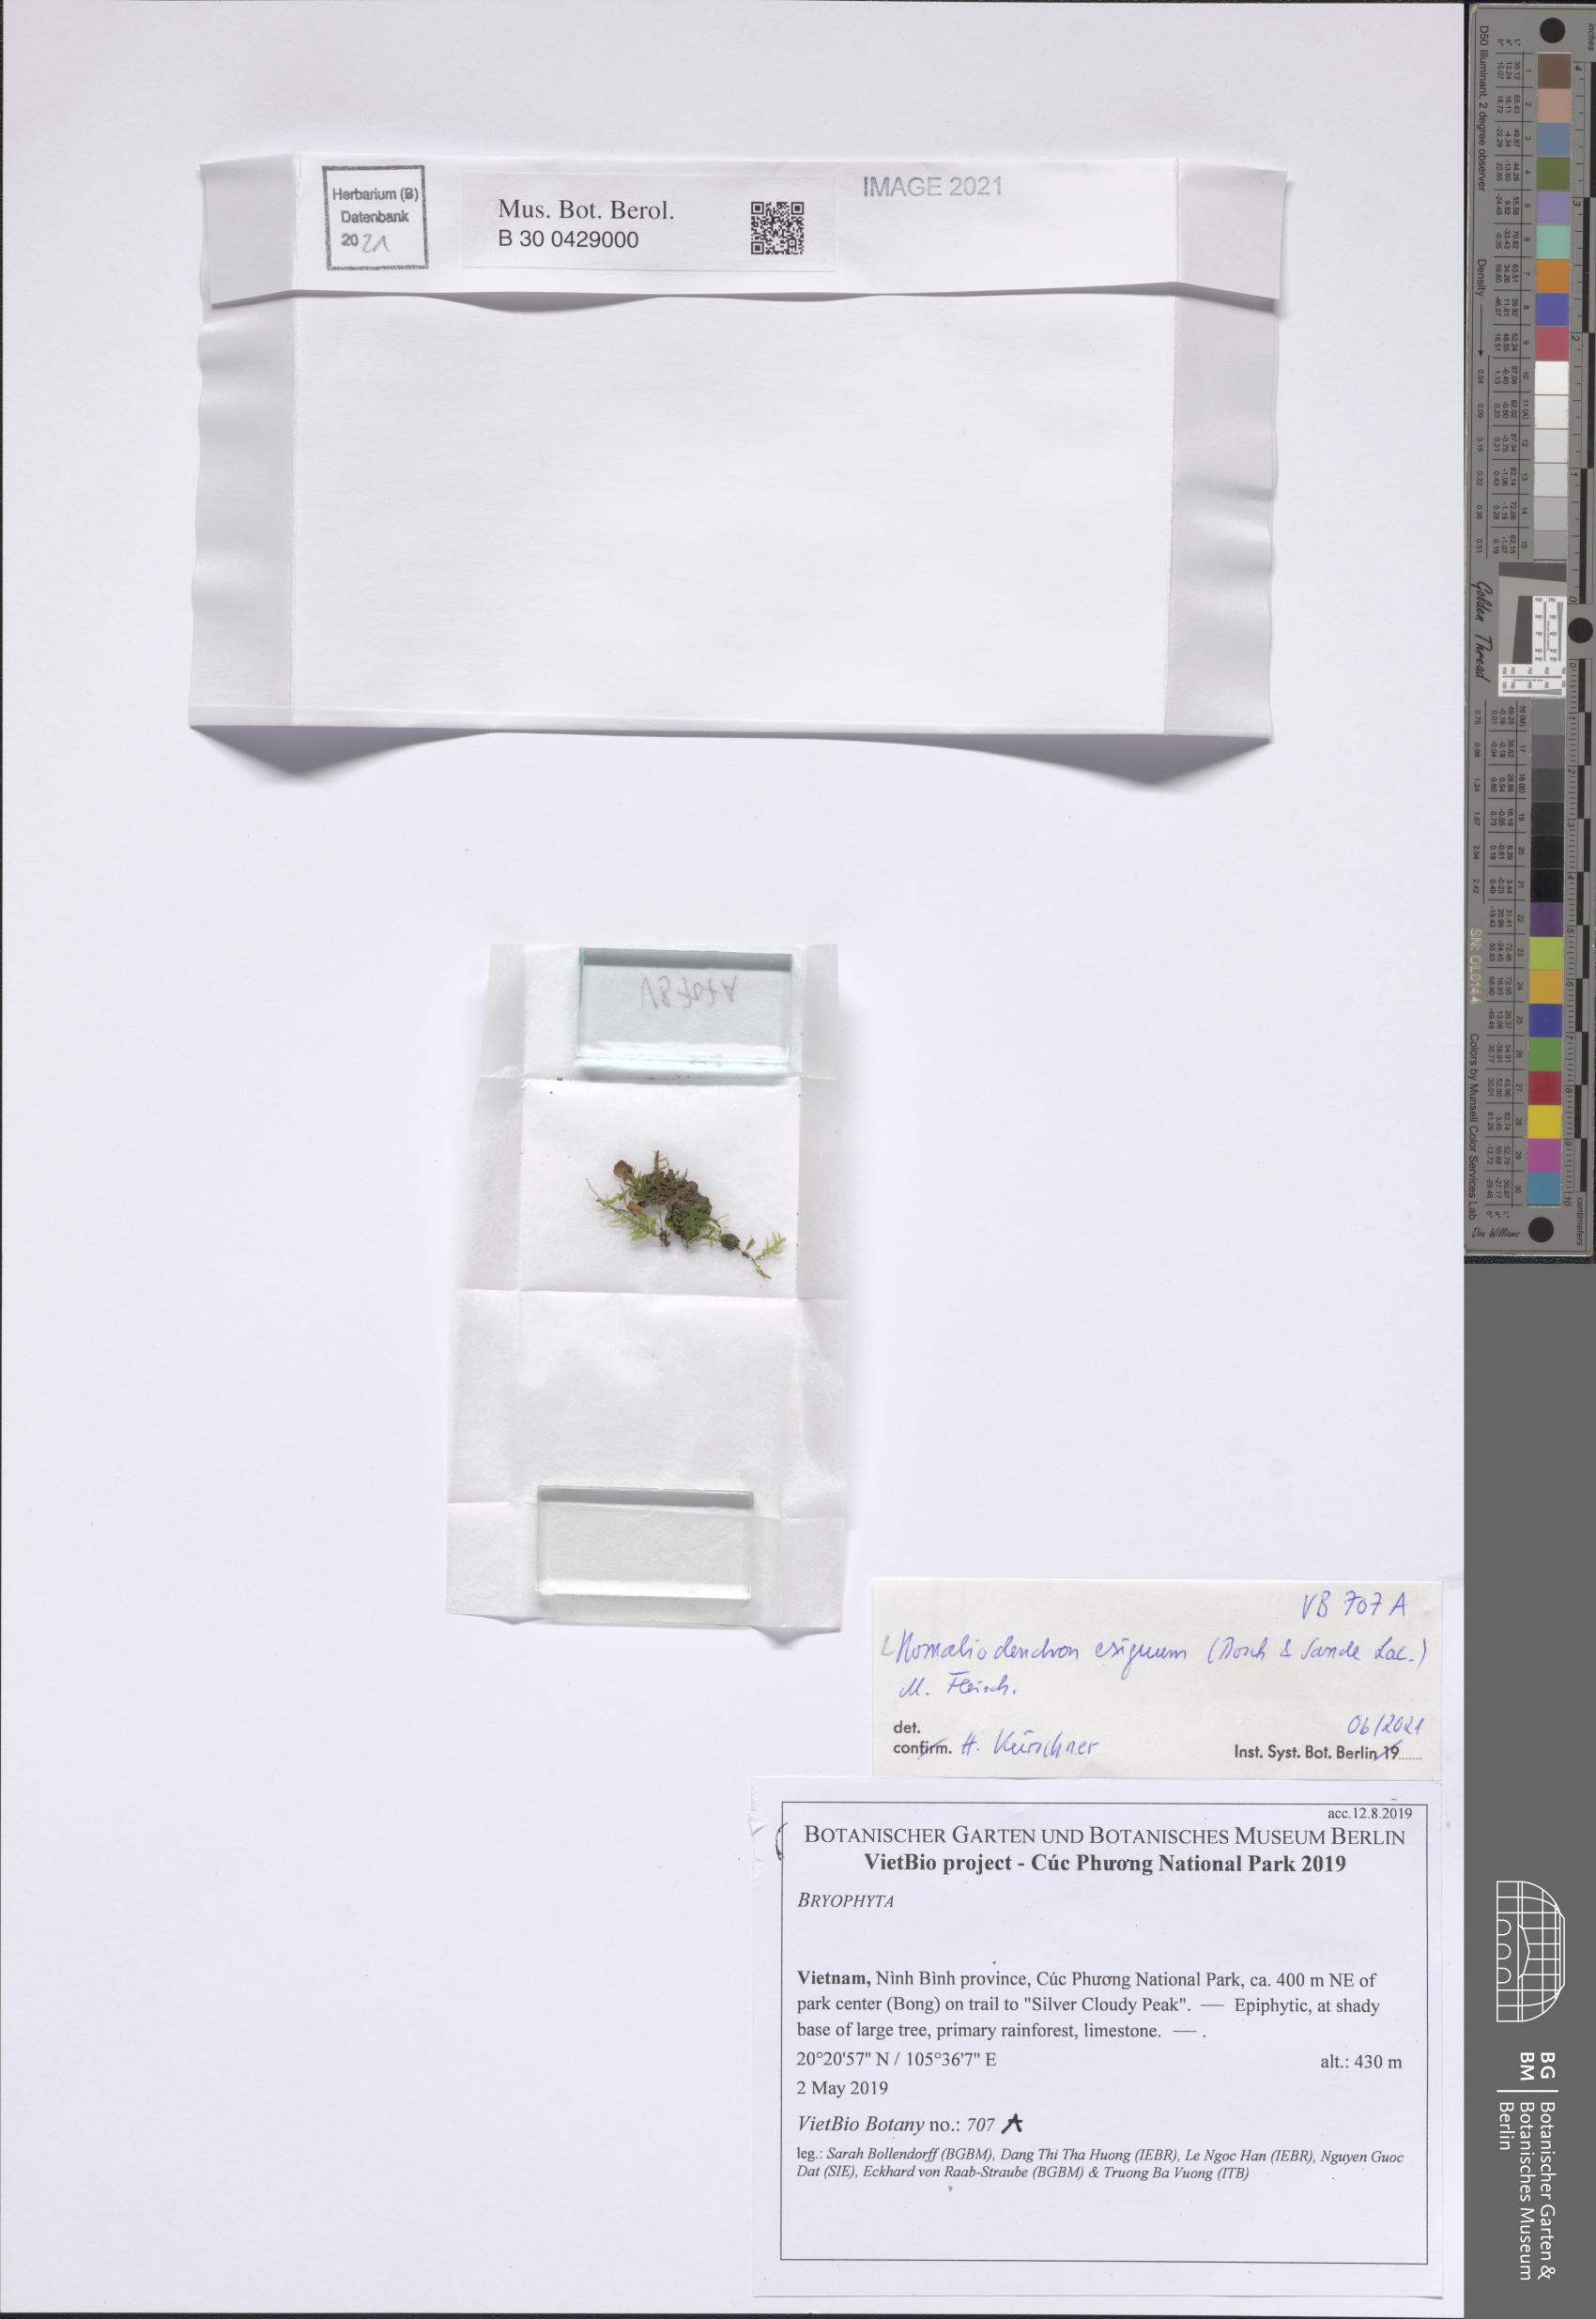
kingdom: Plantae
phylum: Bryophyta
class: Bryopsida
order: Hypnales
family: Neckeraceae
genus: Circulifolium
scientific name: Circulifolium exiguum
